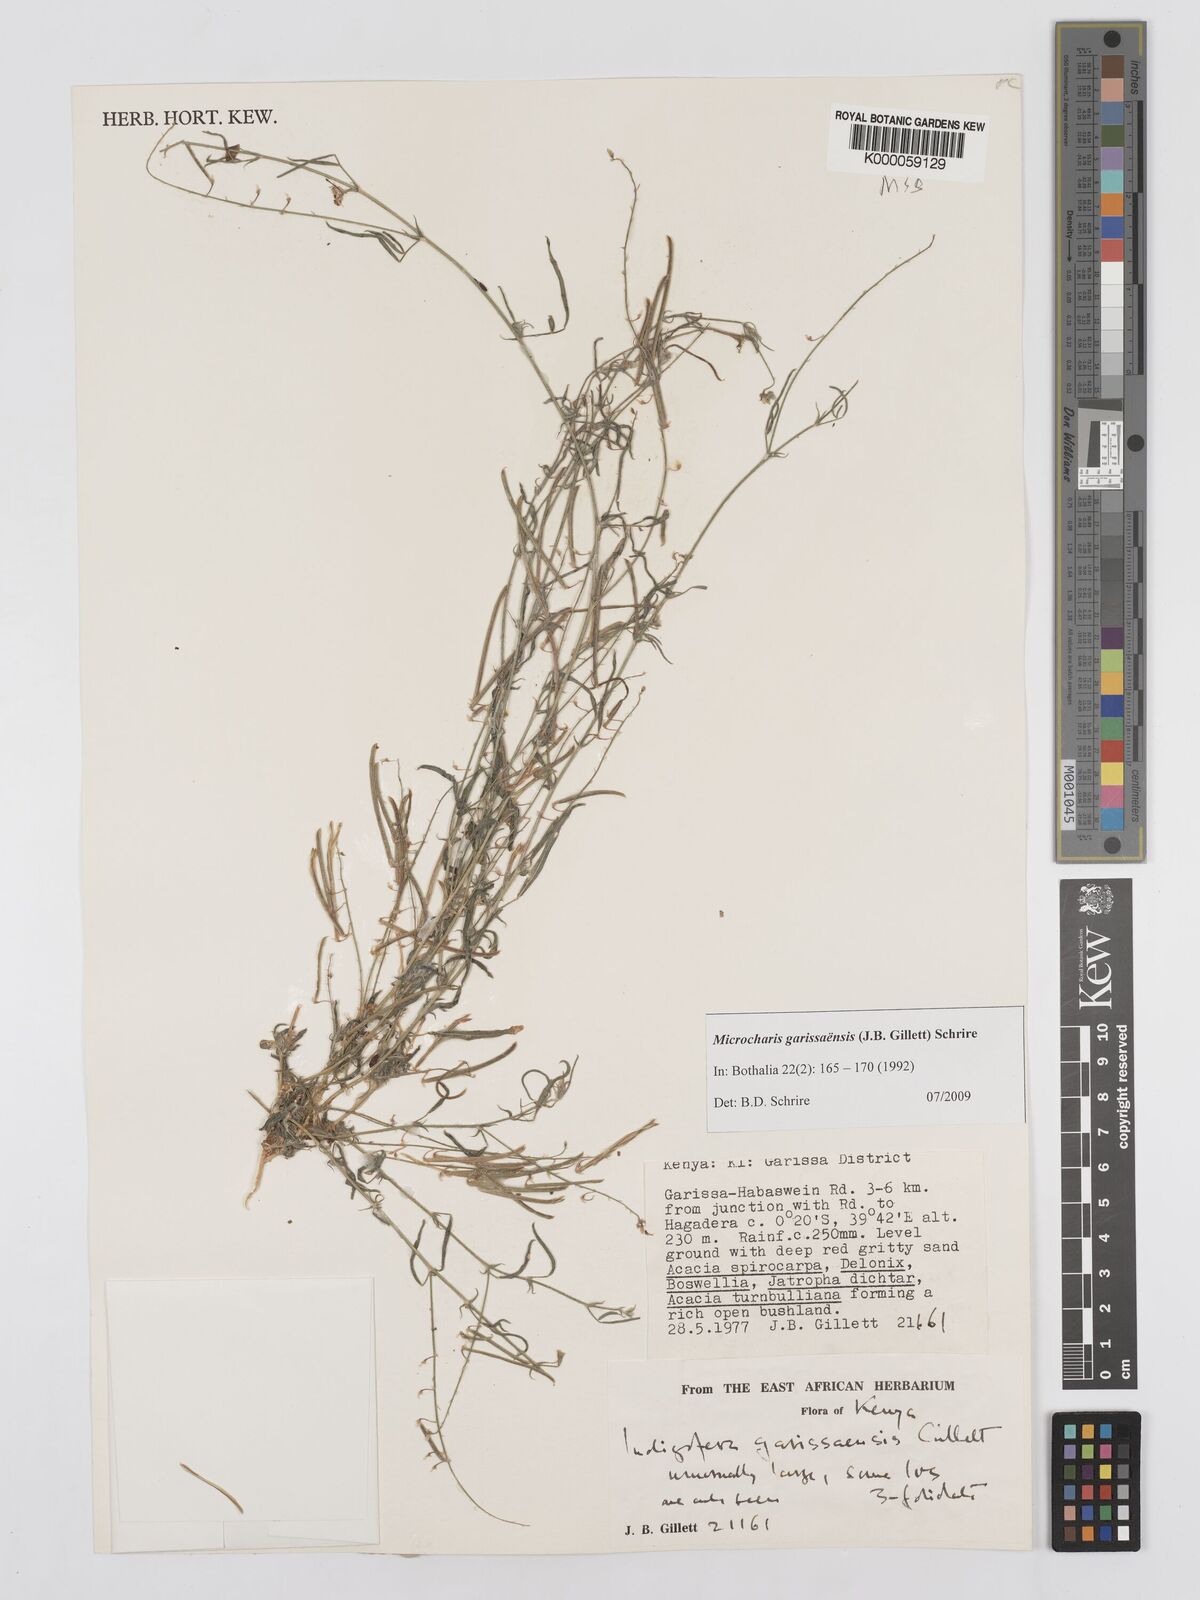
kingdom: Plantae
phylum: Tracheophyta
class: Magnoliopsida
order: Fabales
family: Fabaceae
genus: Microcharis
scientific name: Microcharis garissaensis
